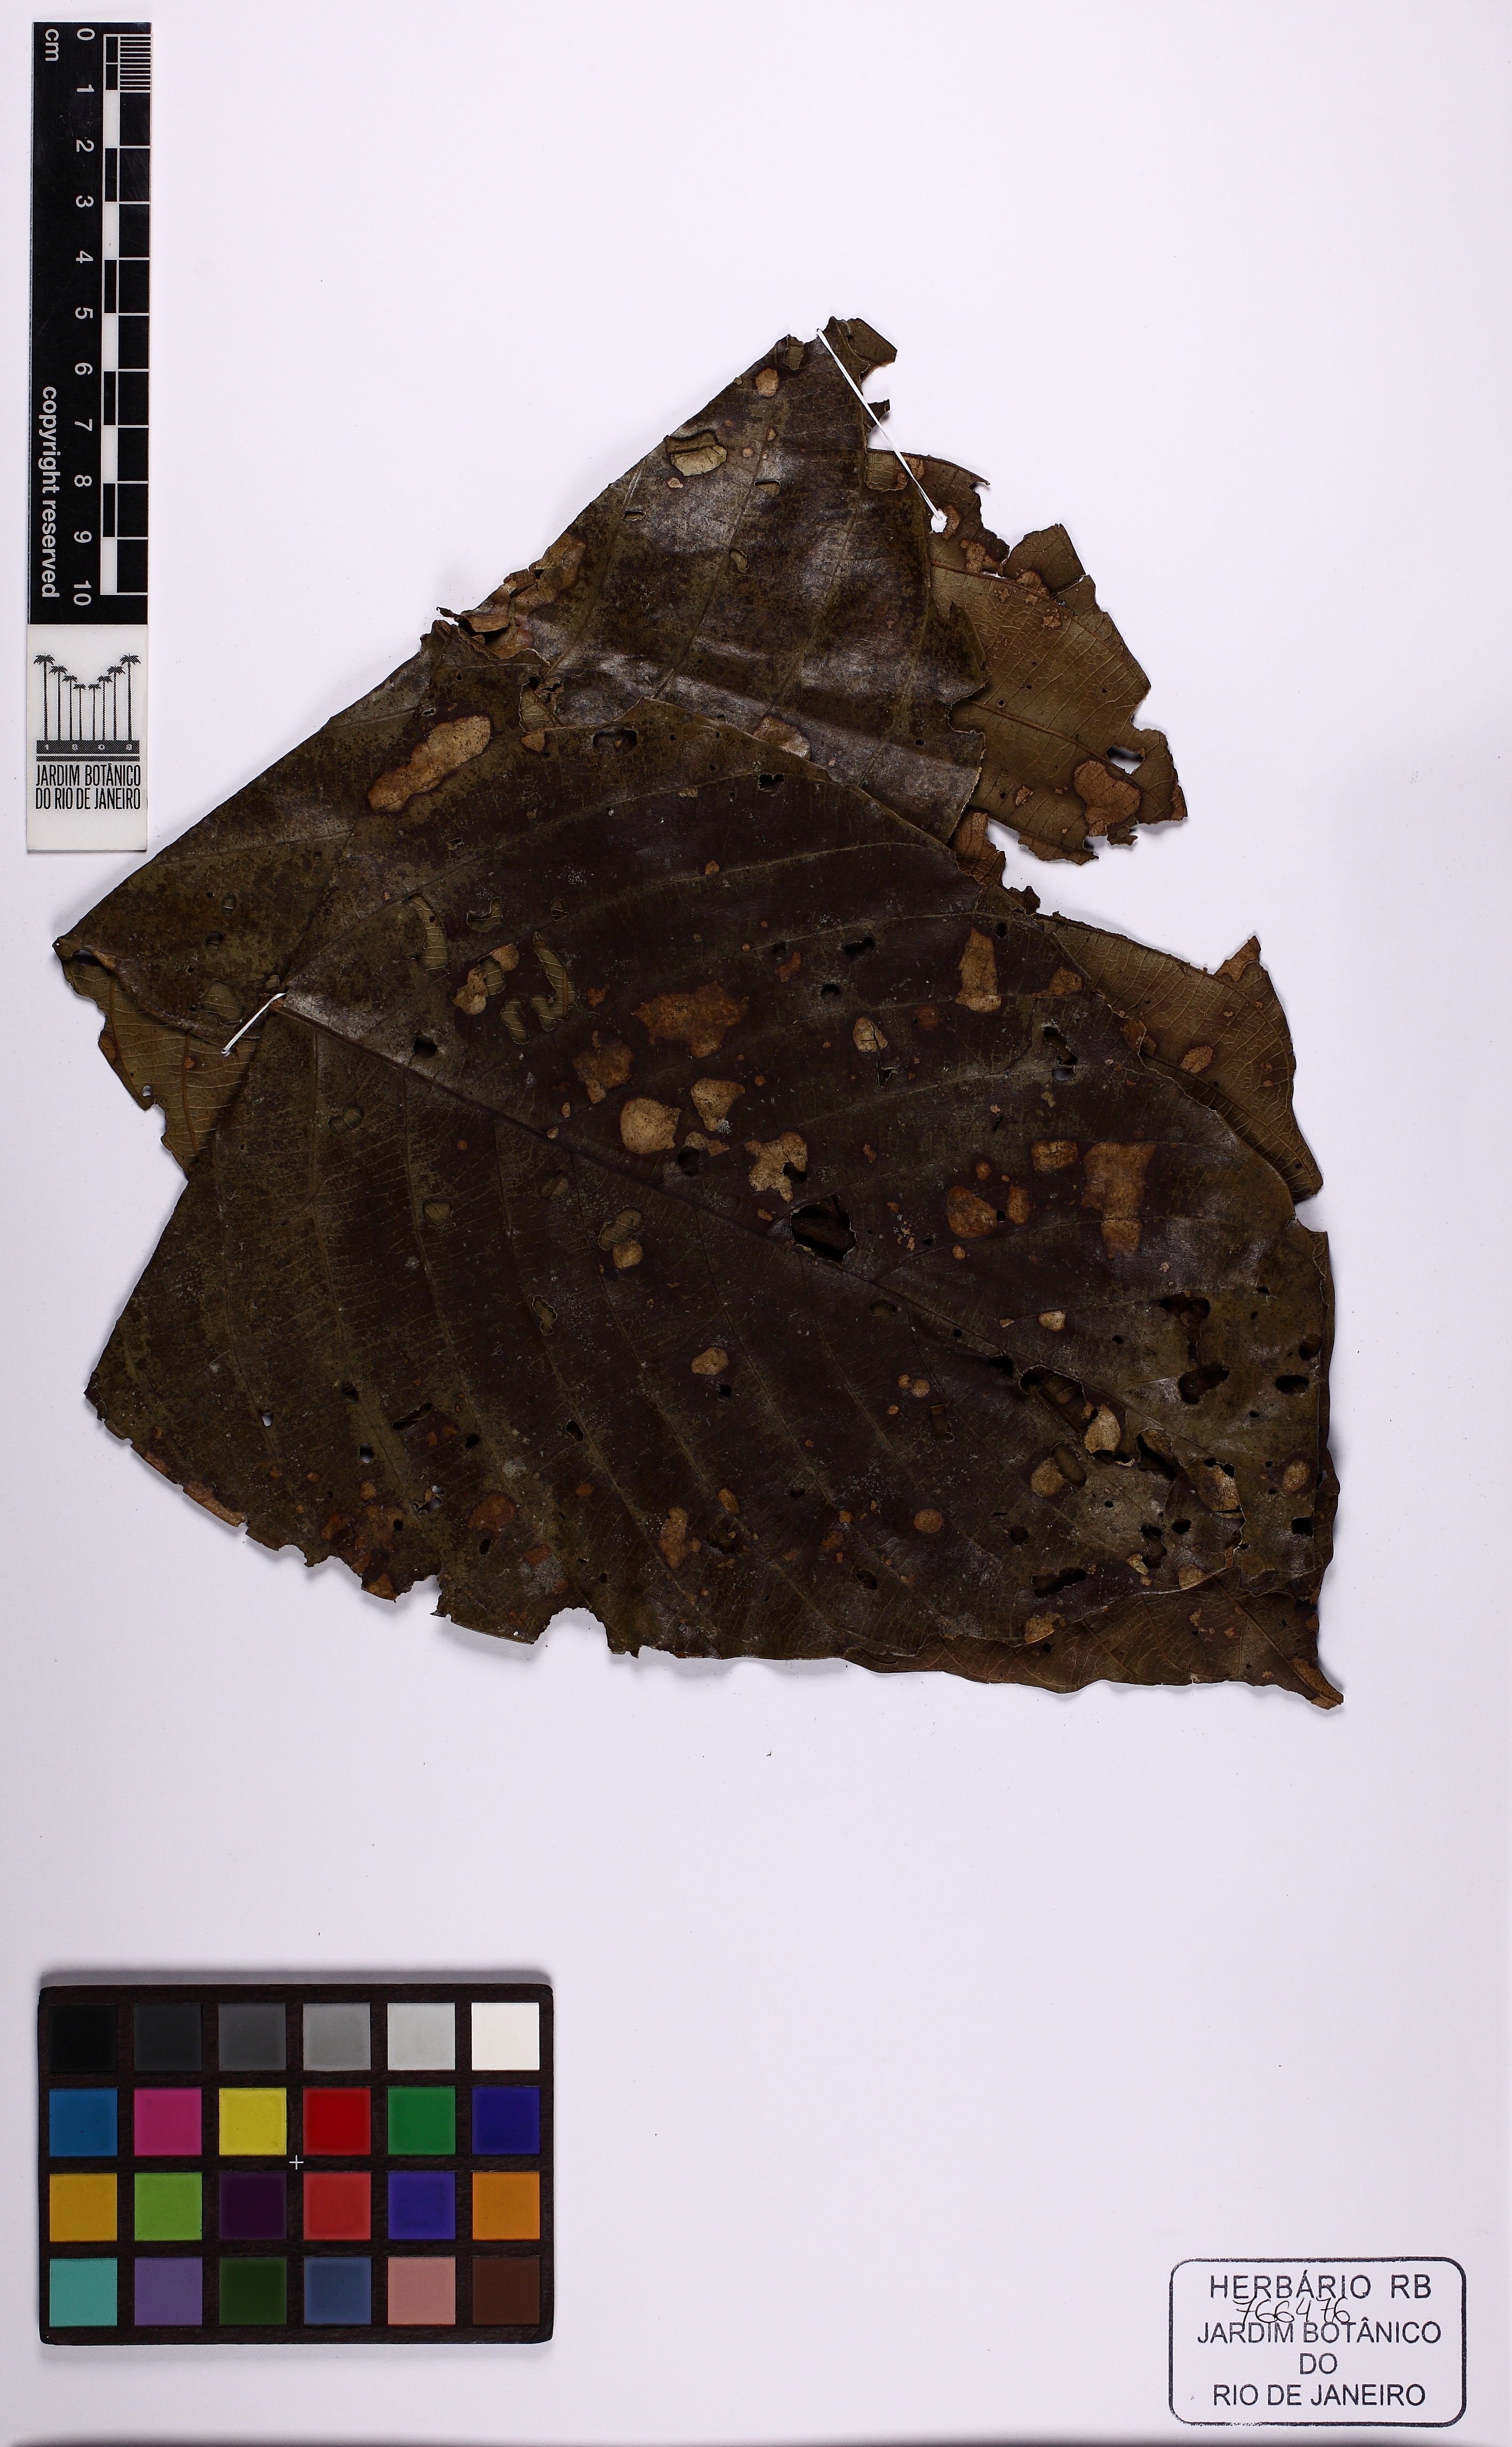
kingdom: Plantae
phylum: Tracheophyta
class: Magnoliopsida
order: Gentianales
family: Rubiaceae
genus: Duroia
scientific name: Duroia macrophylla
